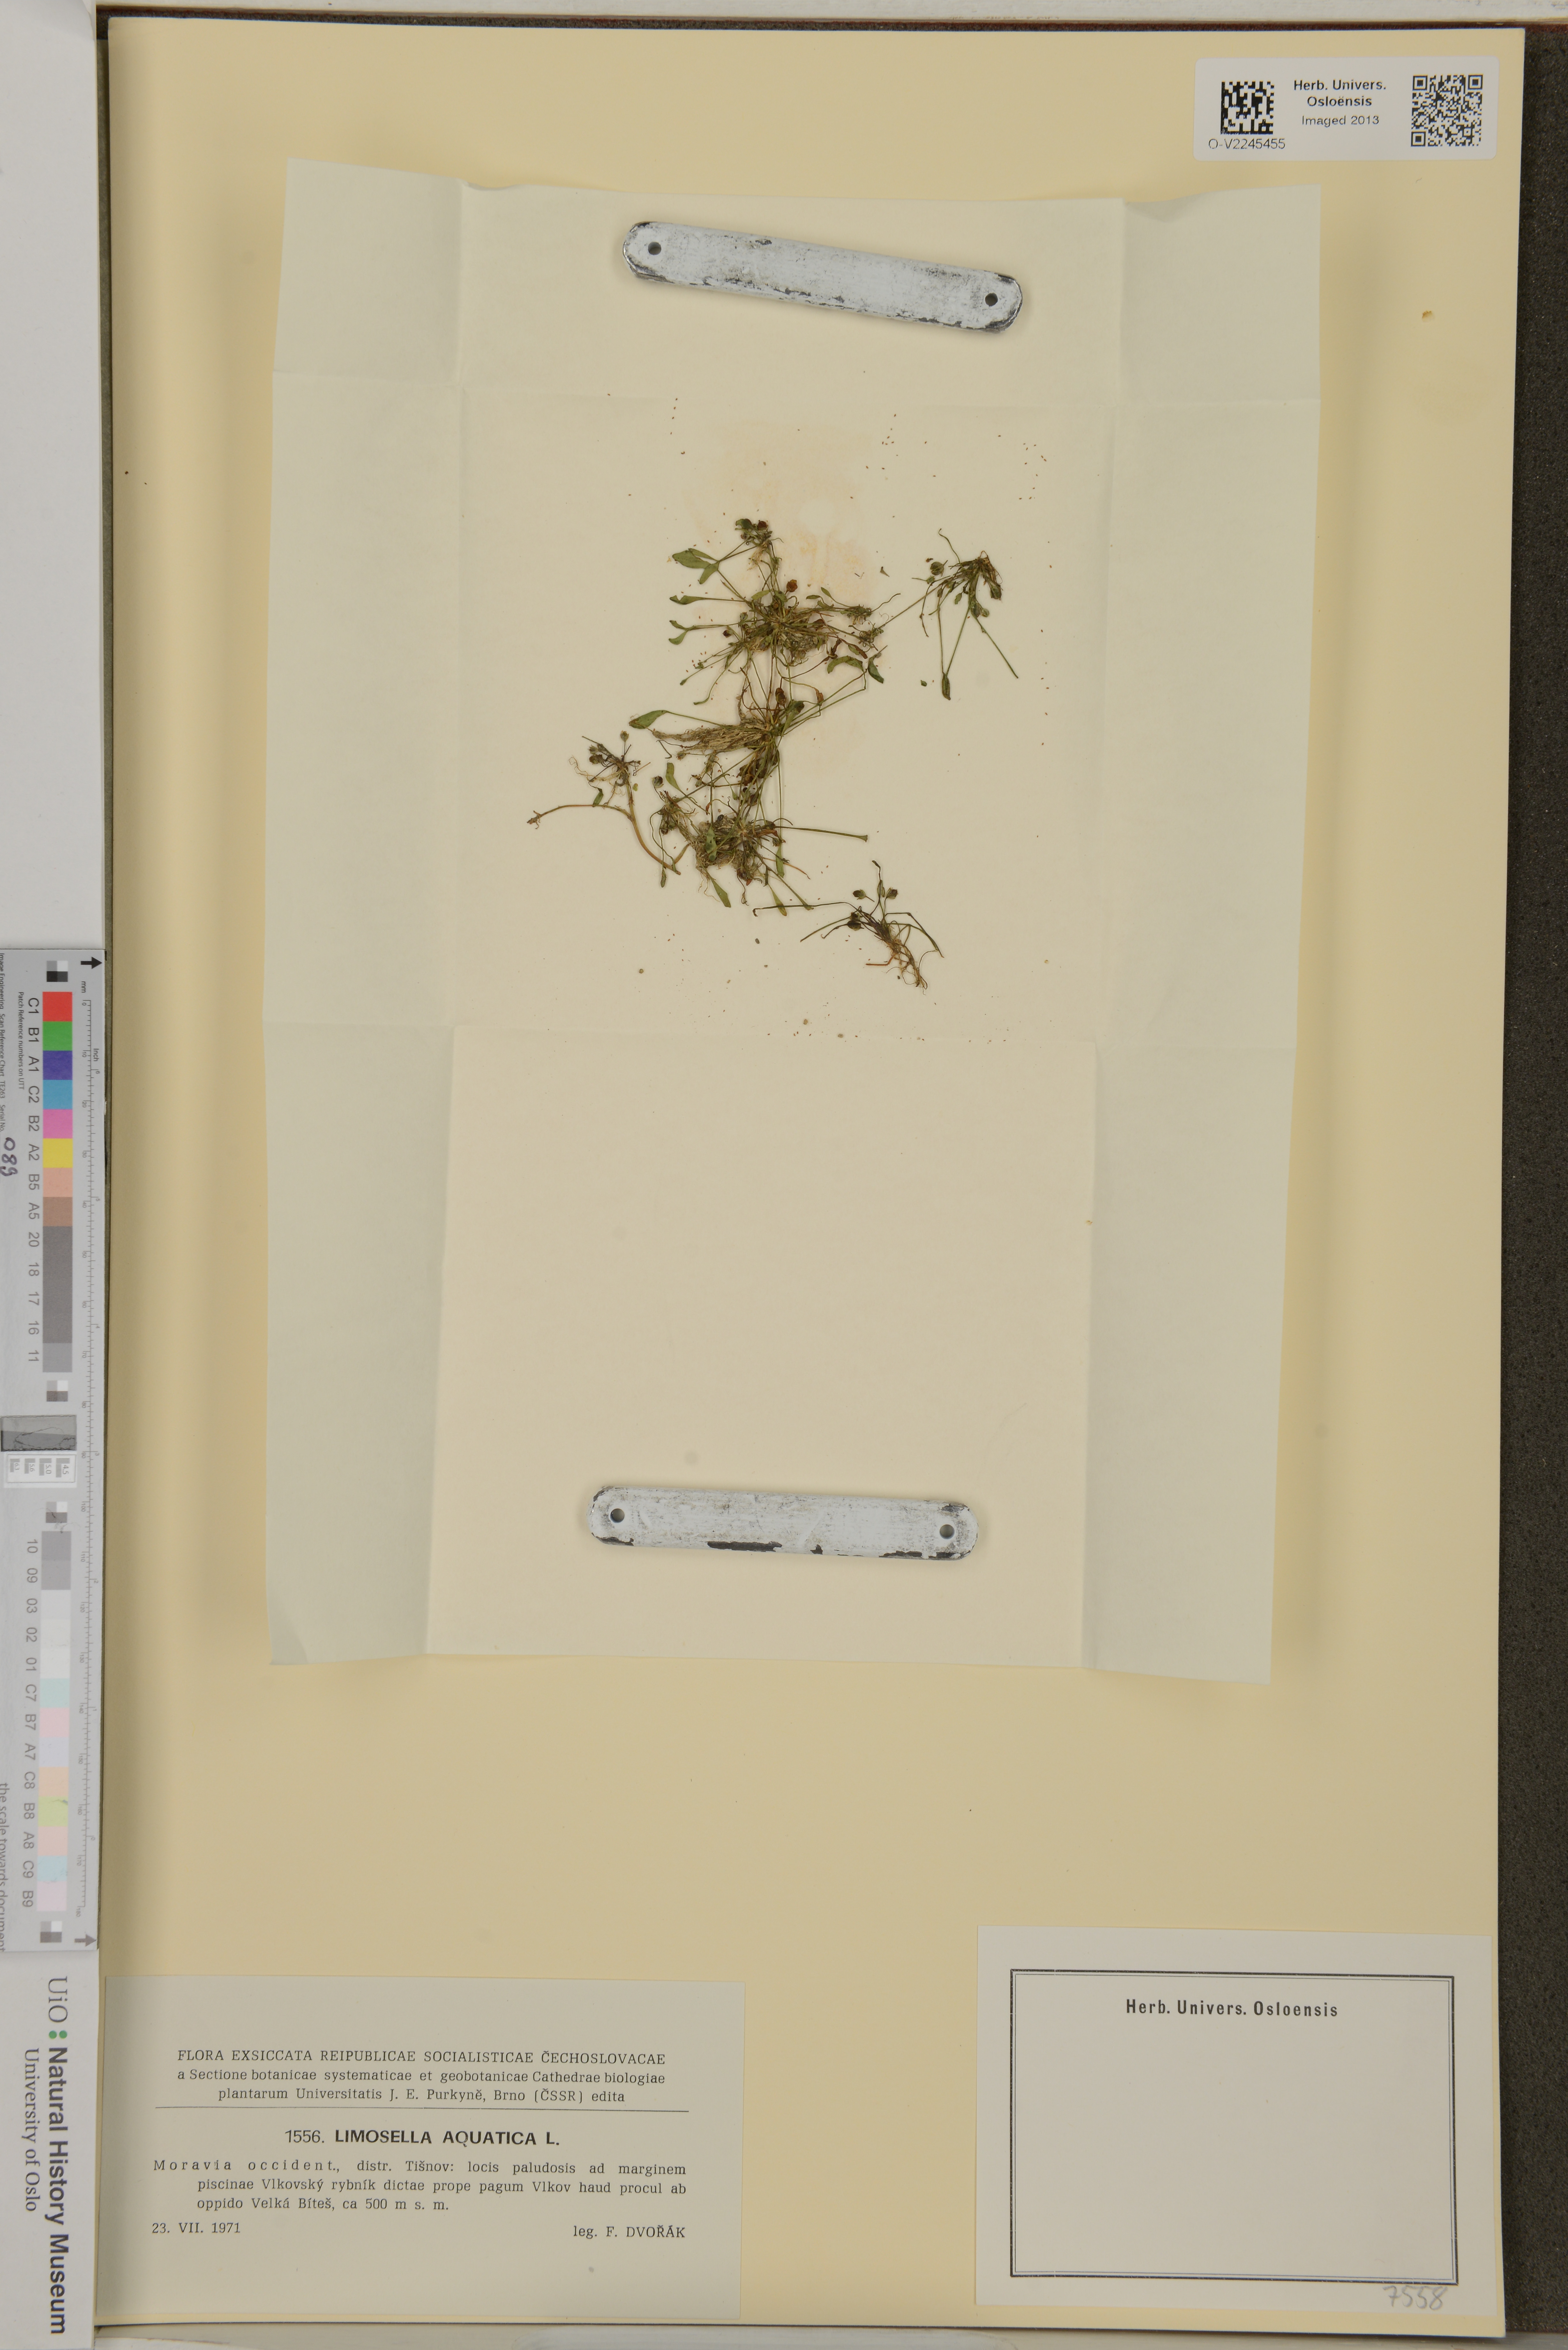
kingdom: Plantae
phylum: Tracheophyta
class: Magnoliopsida
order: Lamiales
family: Scrophulariaceae
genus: Limosella
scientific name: Limosella aquatica
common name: Mudwort
